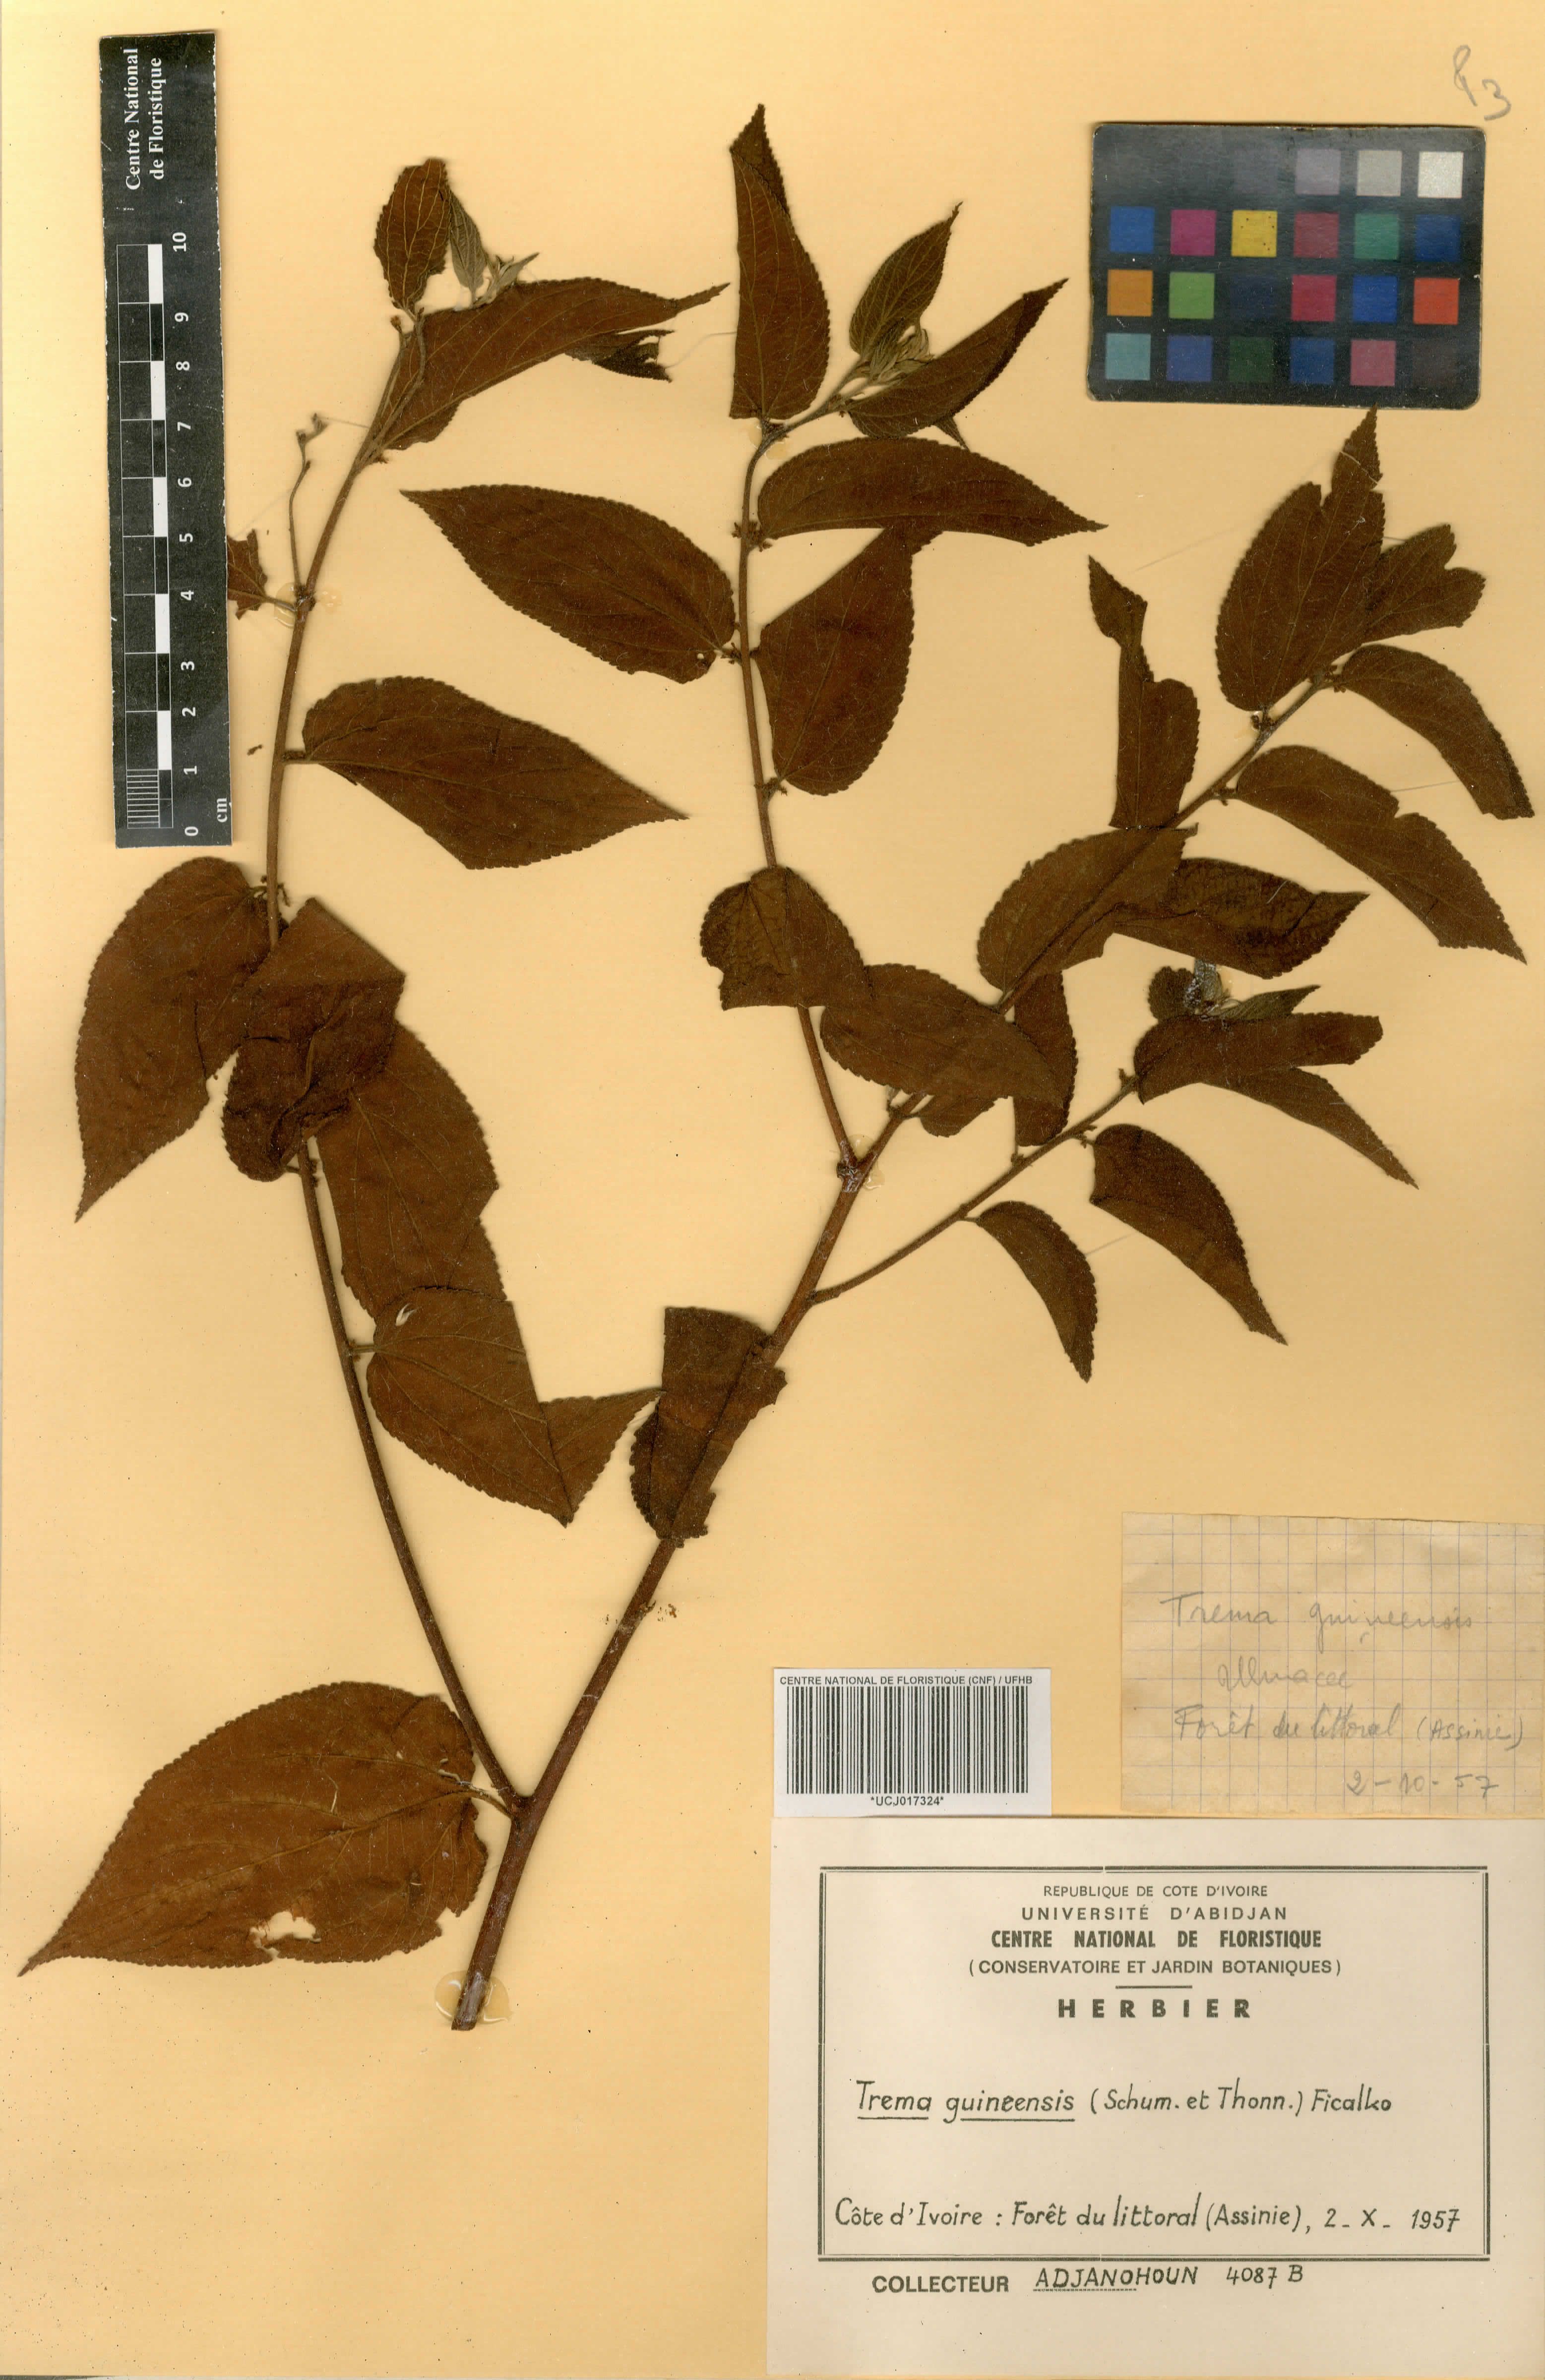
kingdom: Plantae
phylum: Tracheophyta
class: Magnoliopsida
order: Rosales
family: Cannabaceae
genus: Trema
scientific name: Trema orientale
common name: Indian charcoal tree
